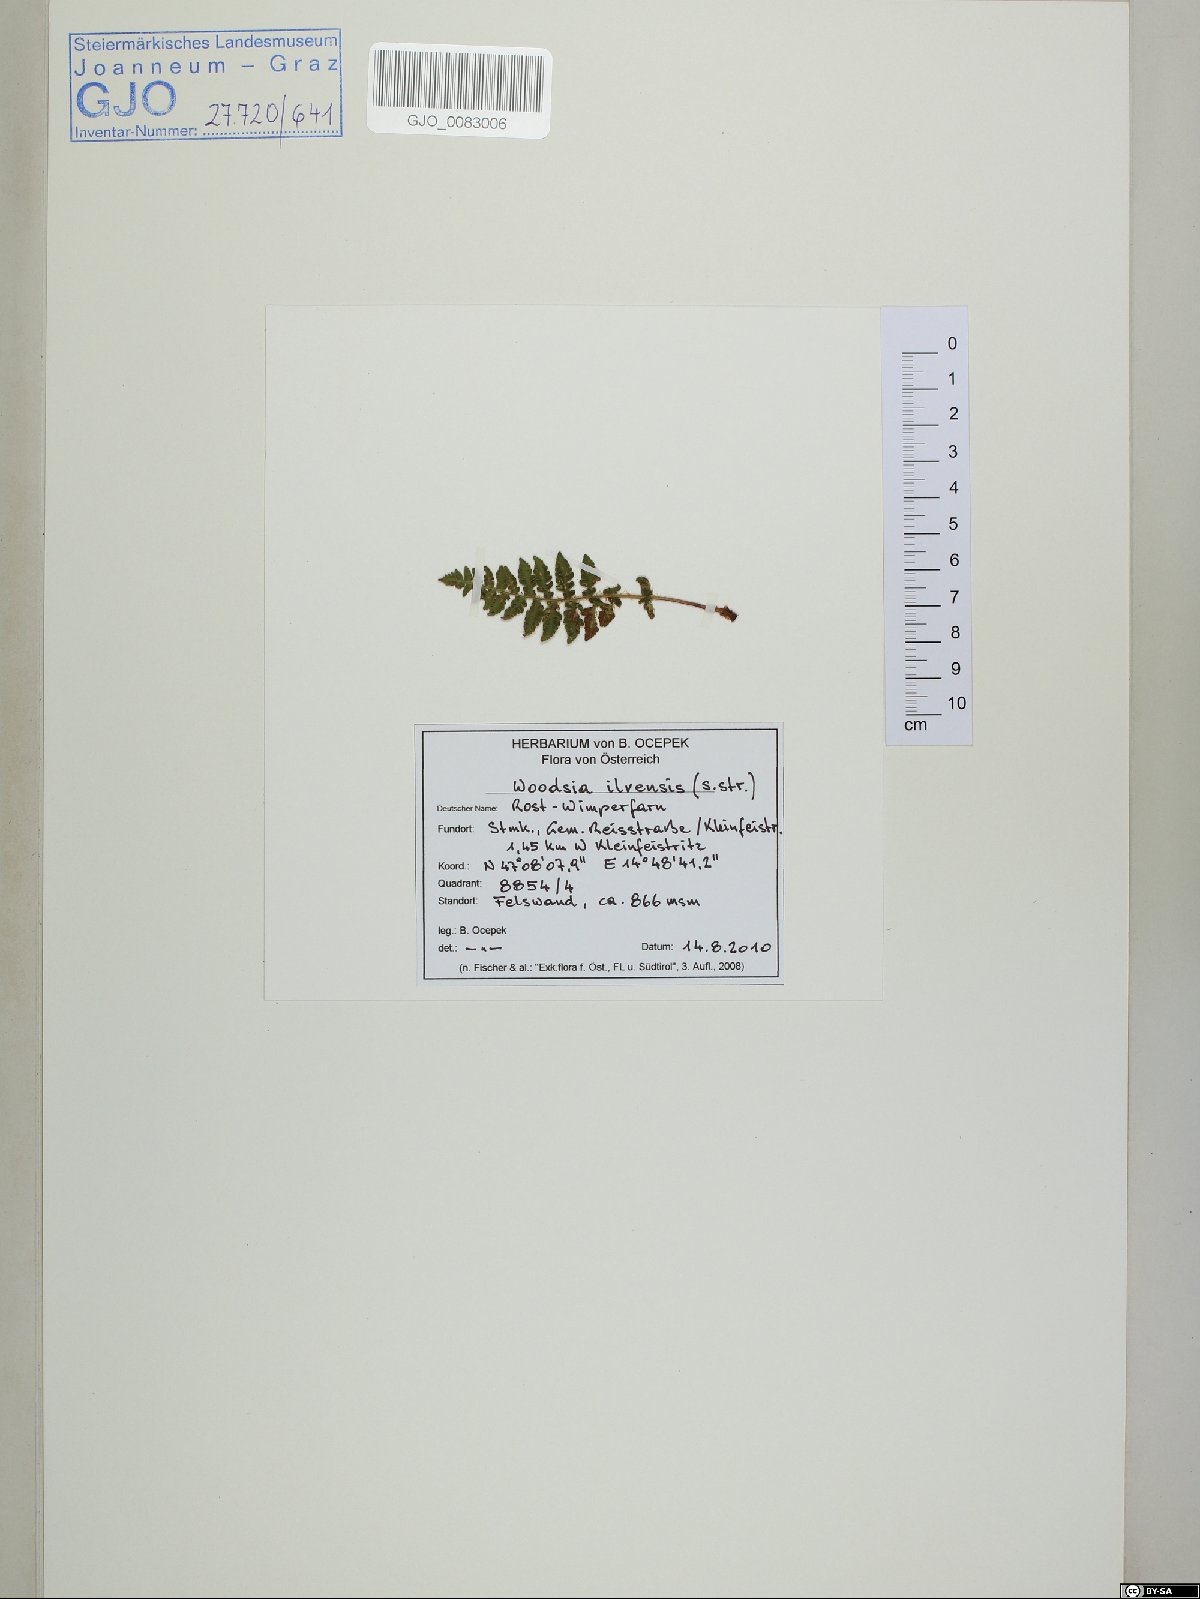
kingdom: Plantae
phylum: Tracheophyta
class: Polypodiopsida
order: Polypodiales
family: Woodsiaceae
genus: Woodsia
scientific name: Woodsia ilvensis
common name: Fragrant woodsia
